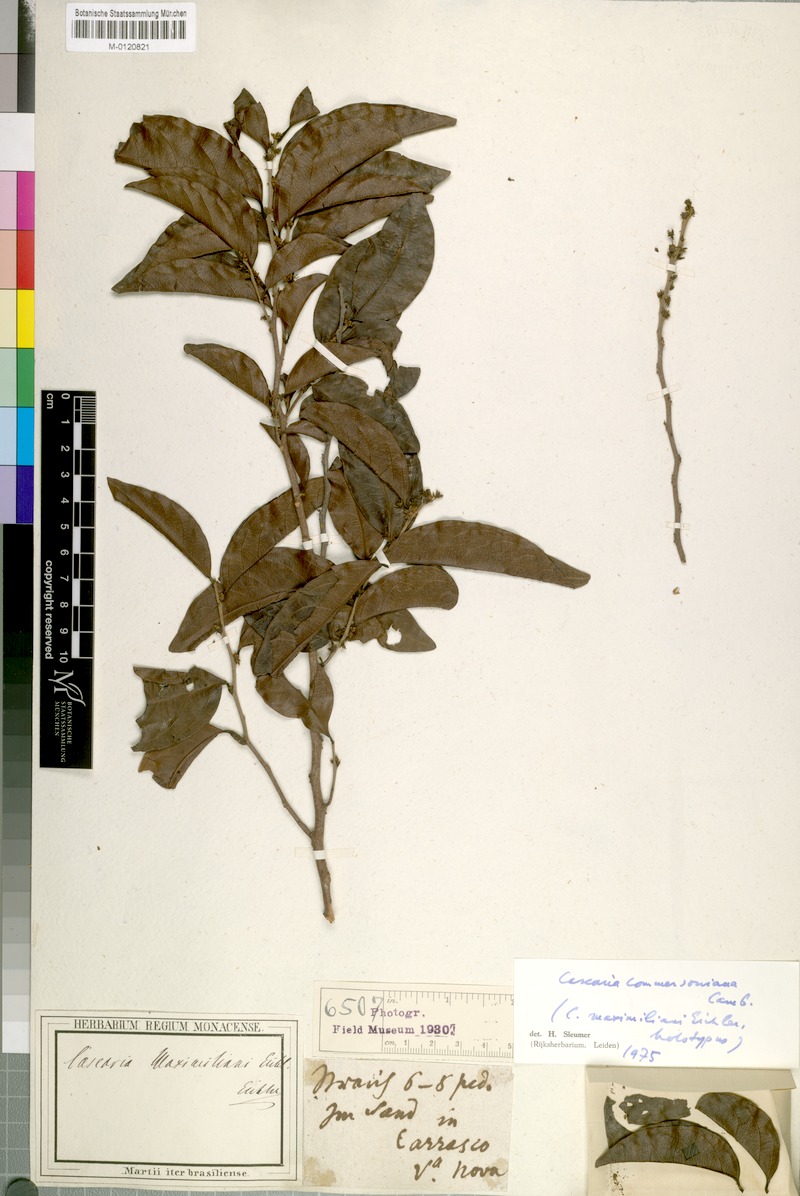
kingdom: Plantae
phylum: Tracheophyta
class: Magnoliopsida
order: Malpighiales
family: Salicaceae
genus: Piparea
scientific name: Piparea dentata
